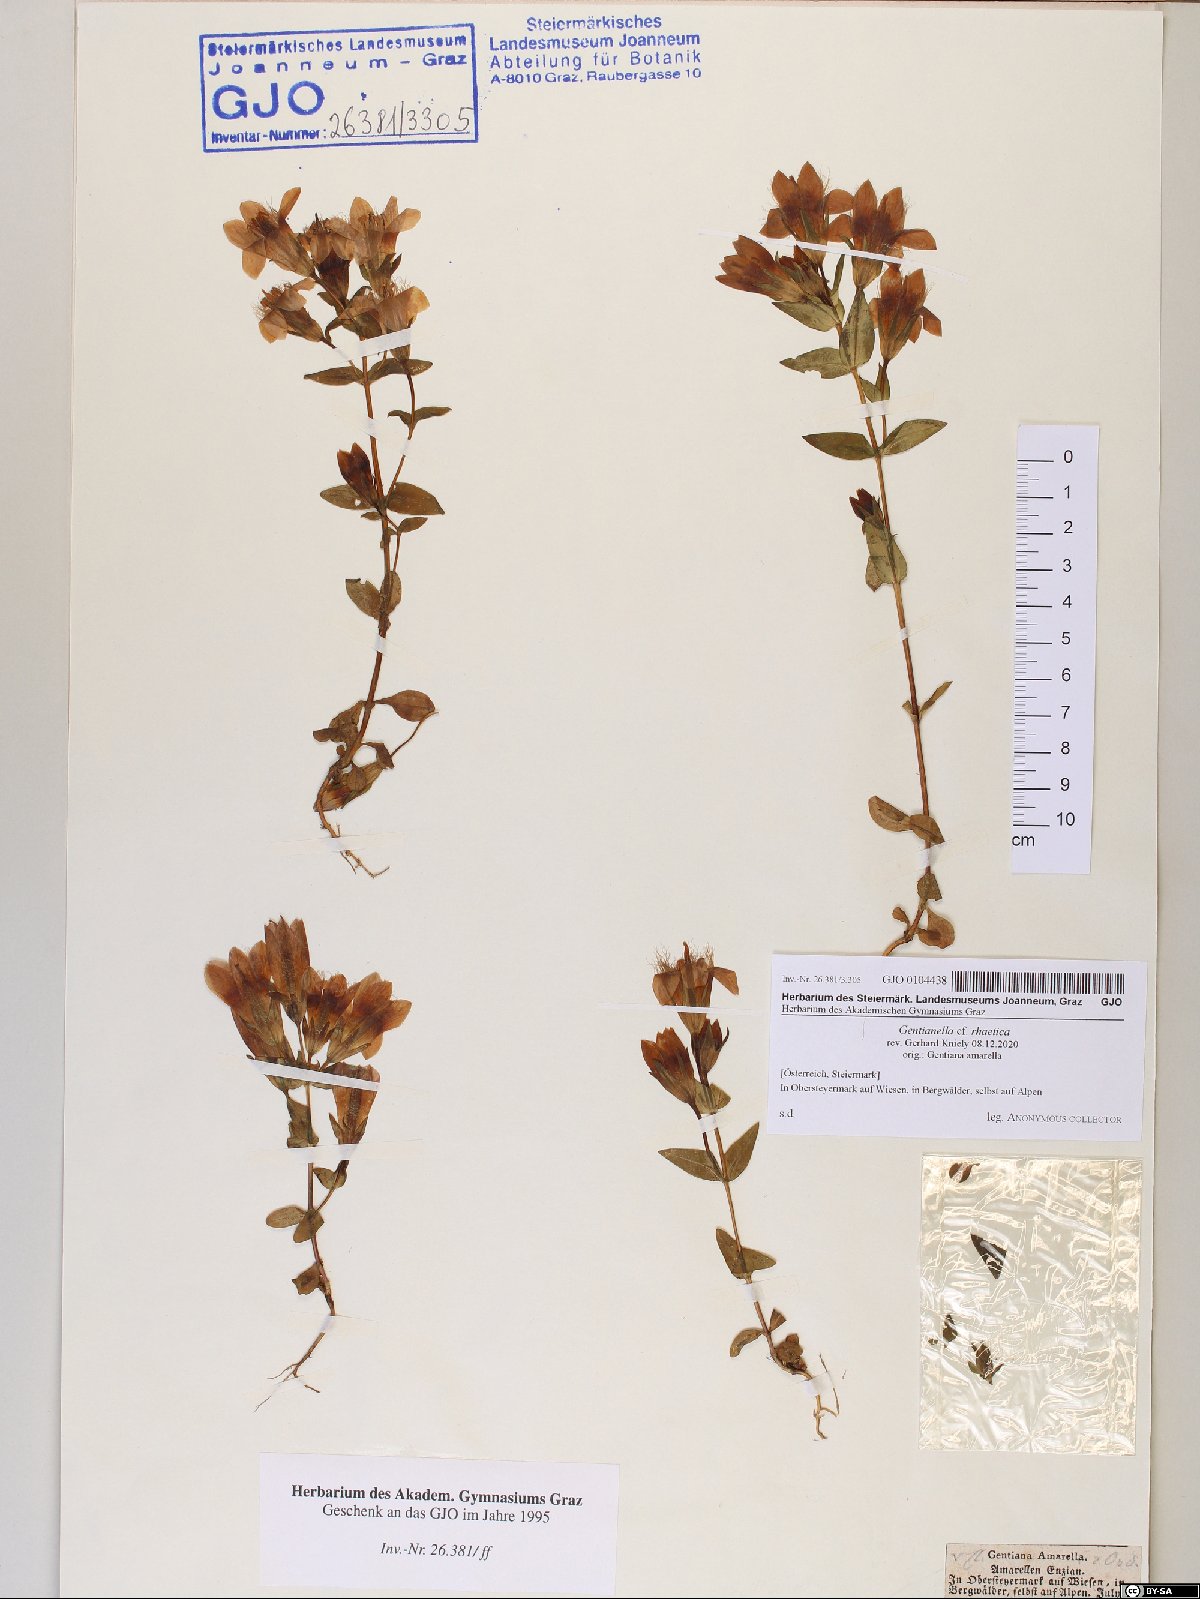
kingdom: Plantae
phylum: Tracheophyta
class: Magnoliopsida
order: Gentianales
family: Gentianaceae
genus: Gentianella
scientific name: Gentianella rhaetica
